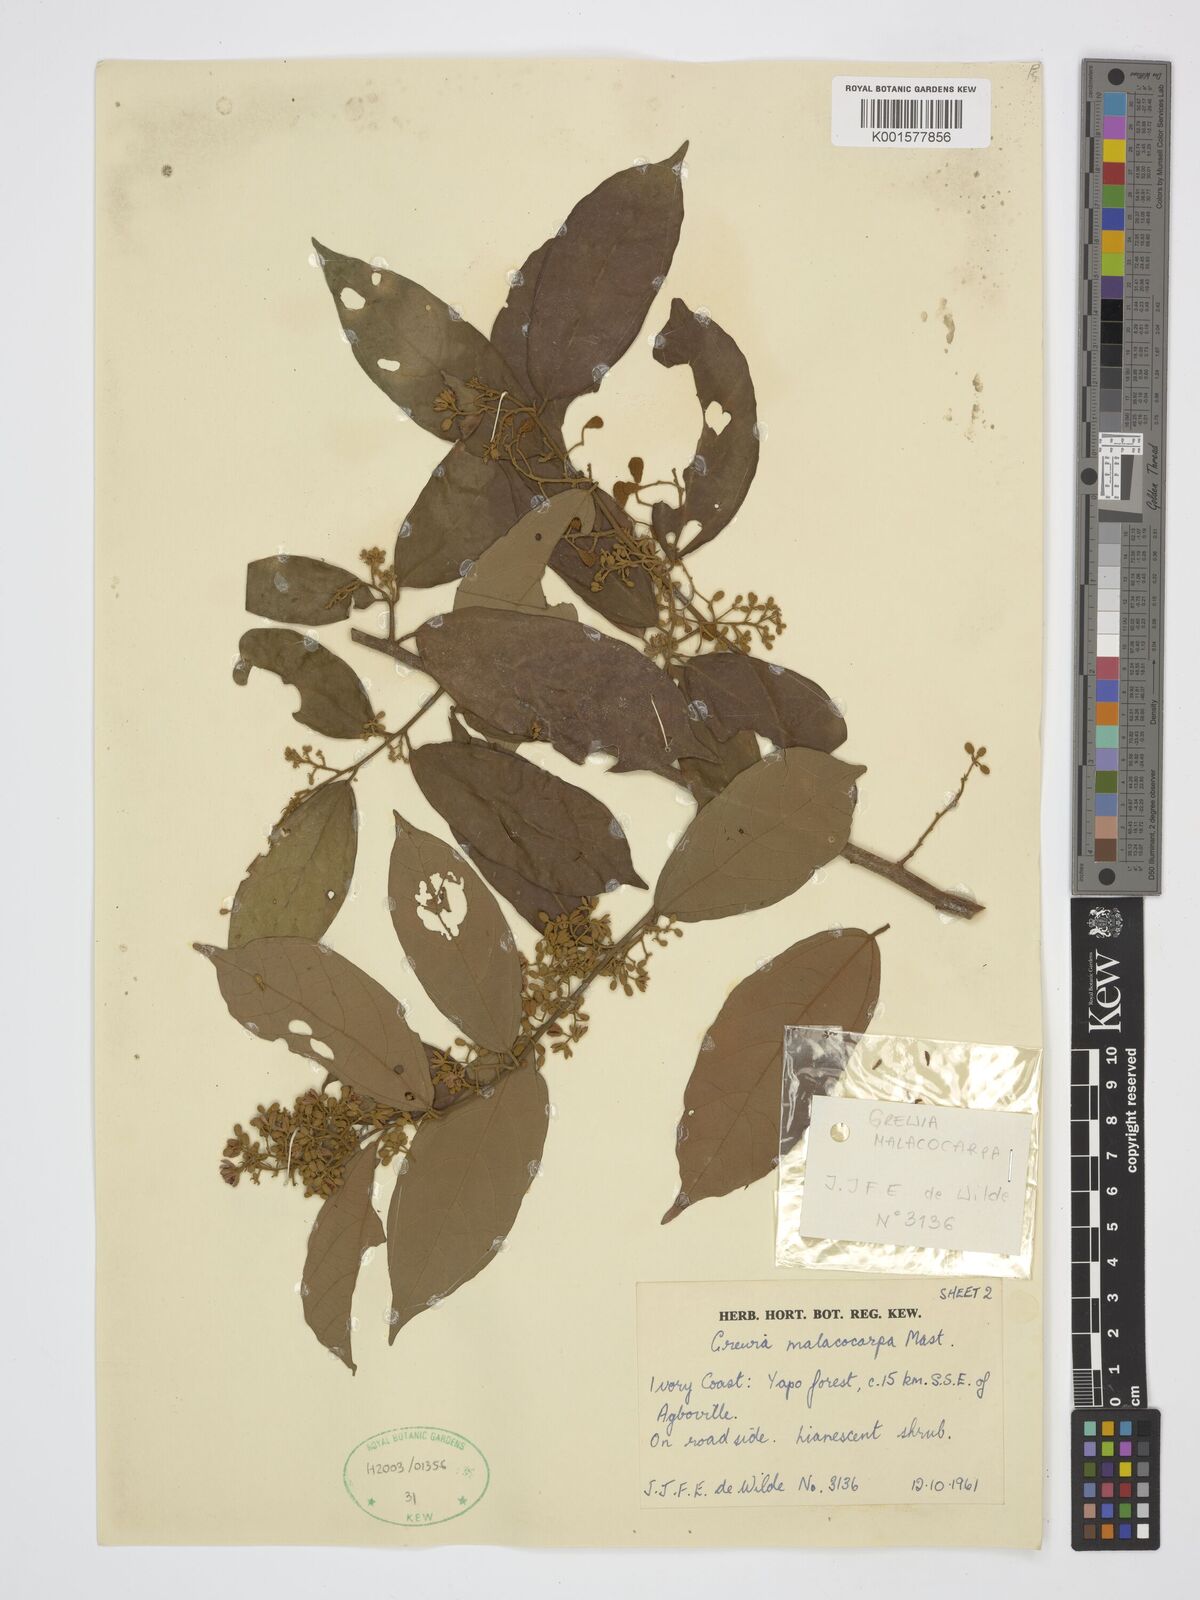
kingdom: Plantae
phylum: Tracheophyta
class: Magnoliopsida
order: Malvales
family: Malvaceae
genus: Microcos
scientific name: Microcos malacocarpa
